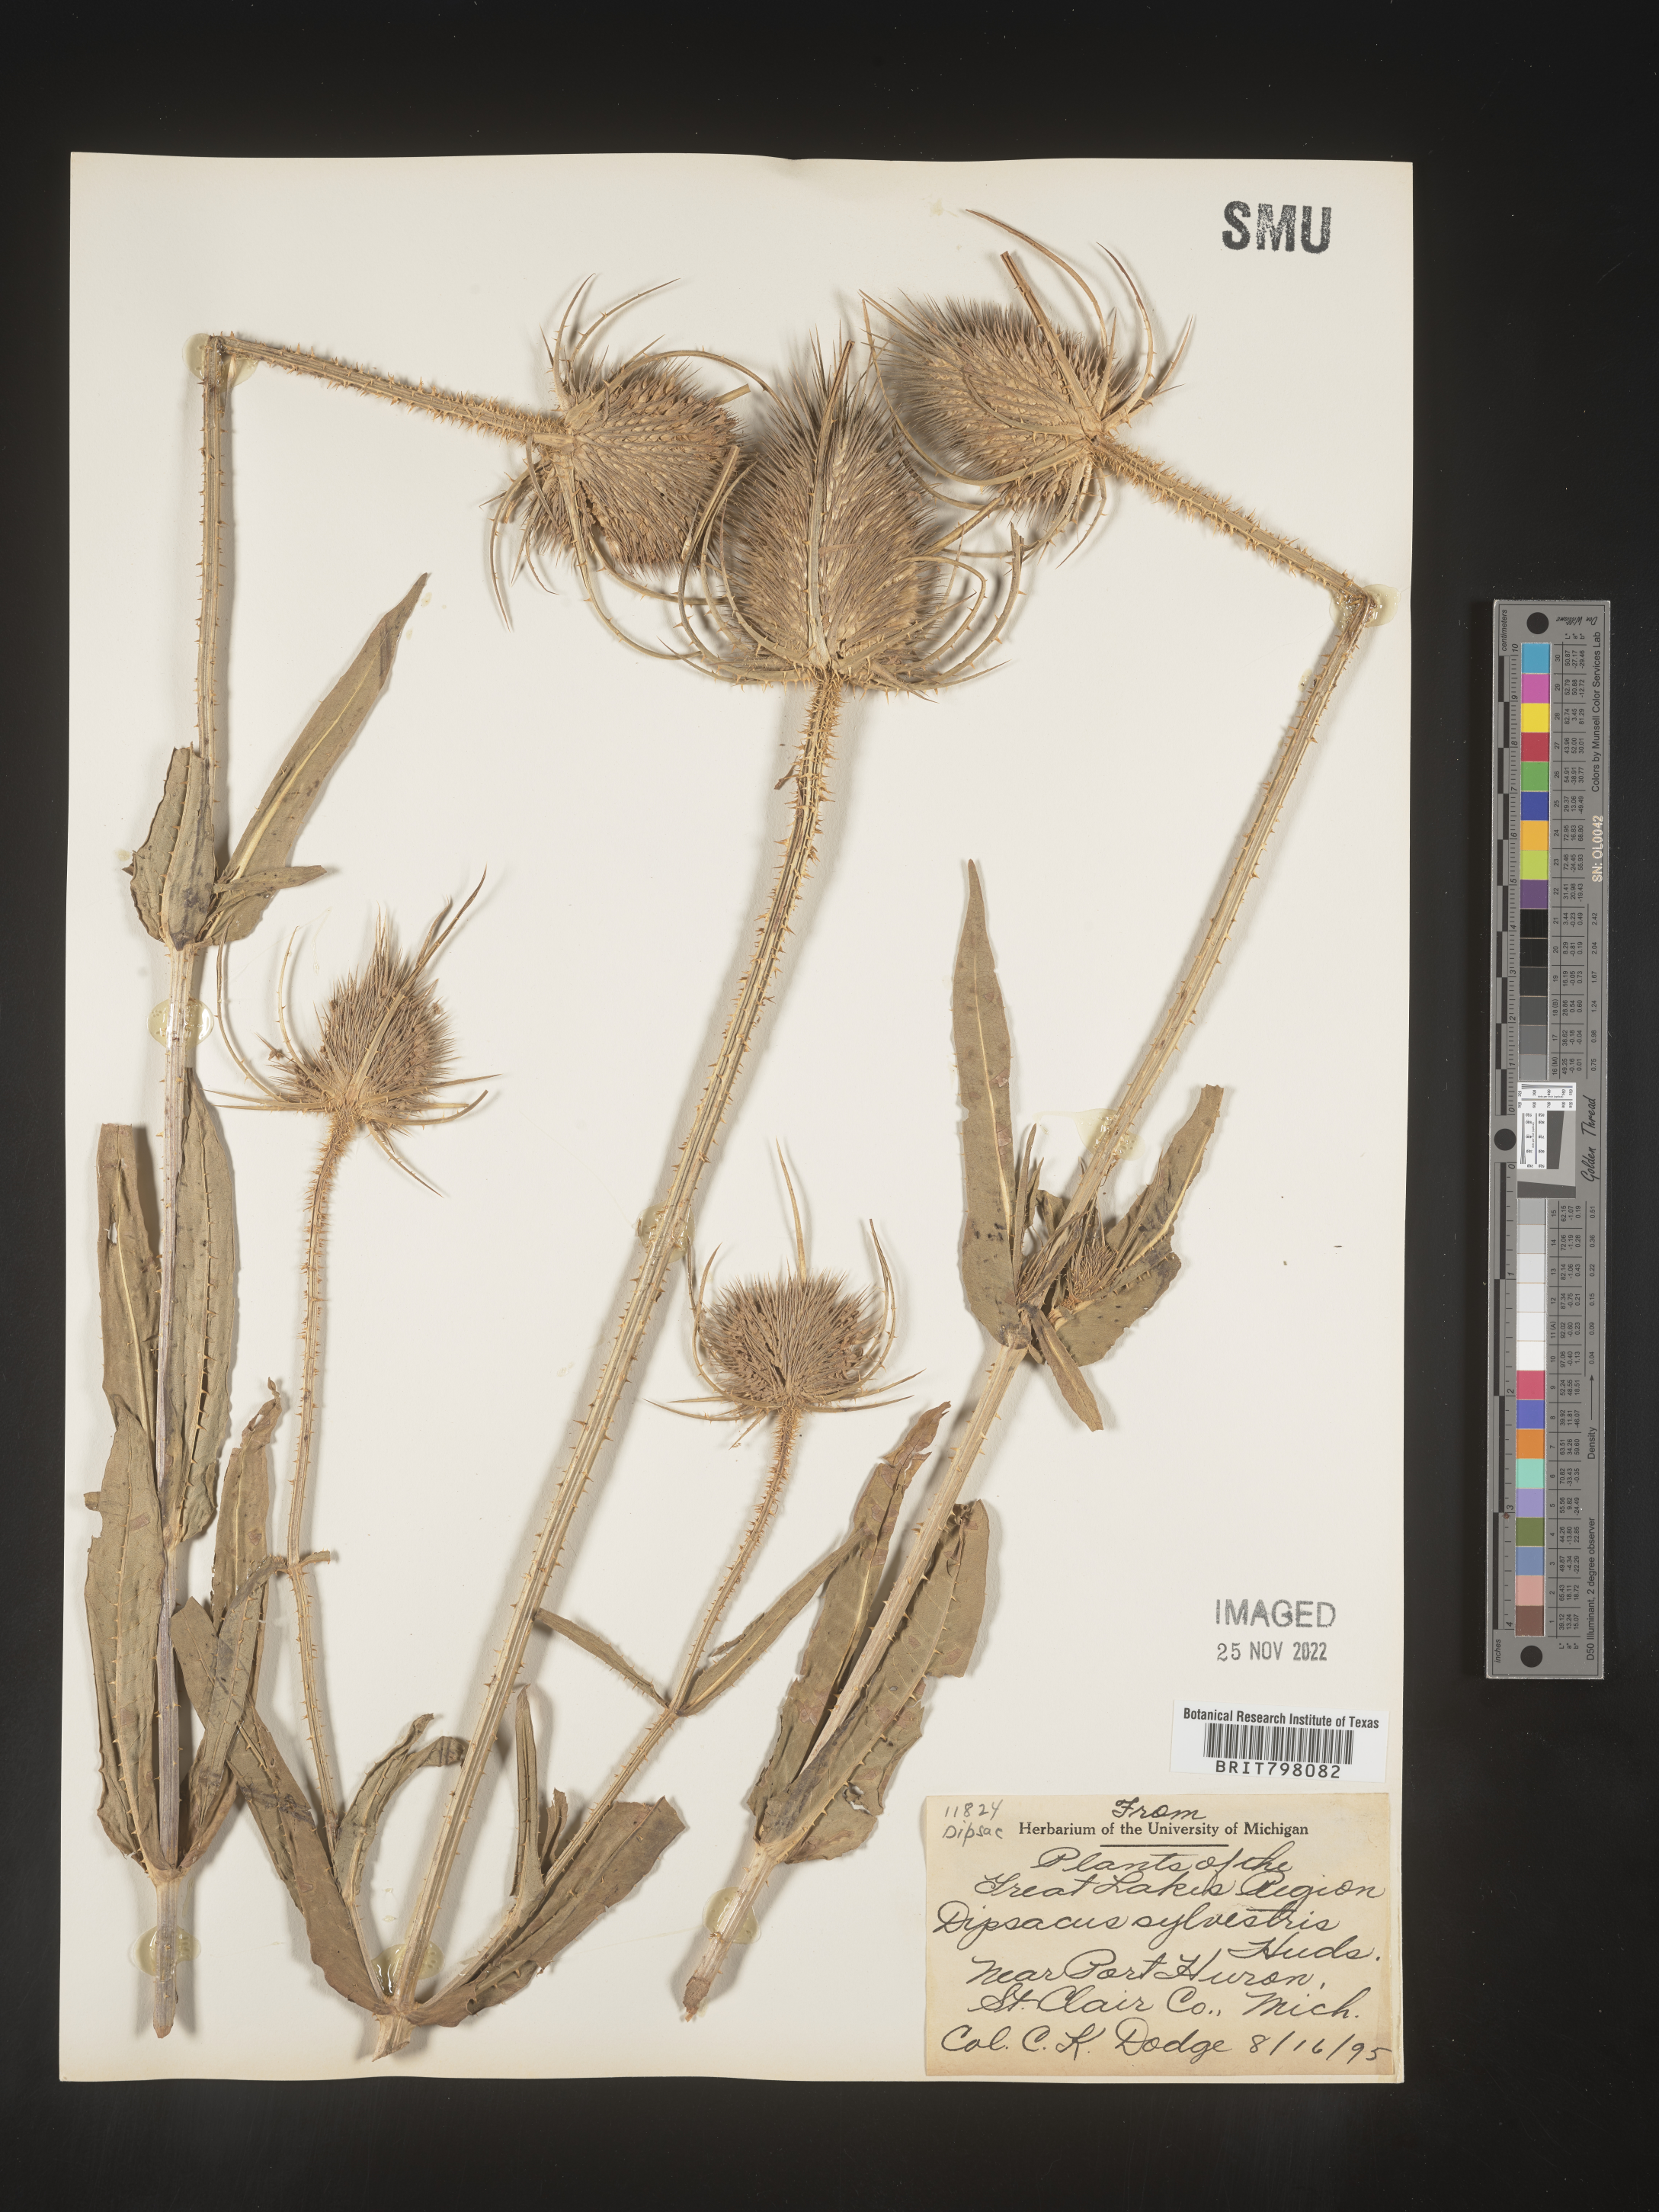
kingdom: Plantae
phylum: Tracheophyta
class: Magnoliopsida
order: Dipsacales
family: Caprifoliaceae
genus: Dipsacus
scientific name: Dipsacus fullonum
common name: Teasel
